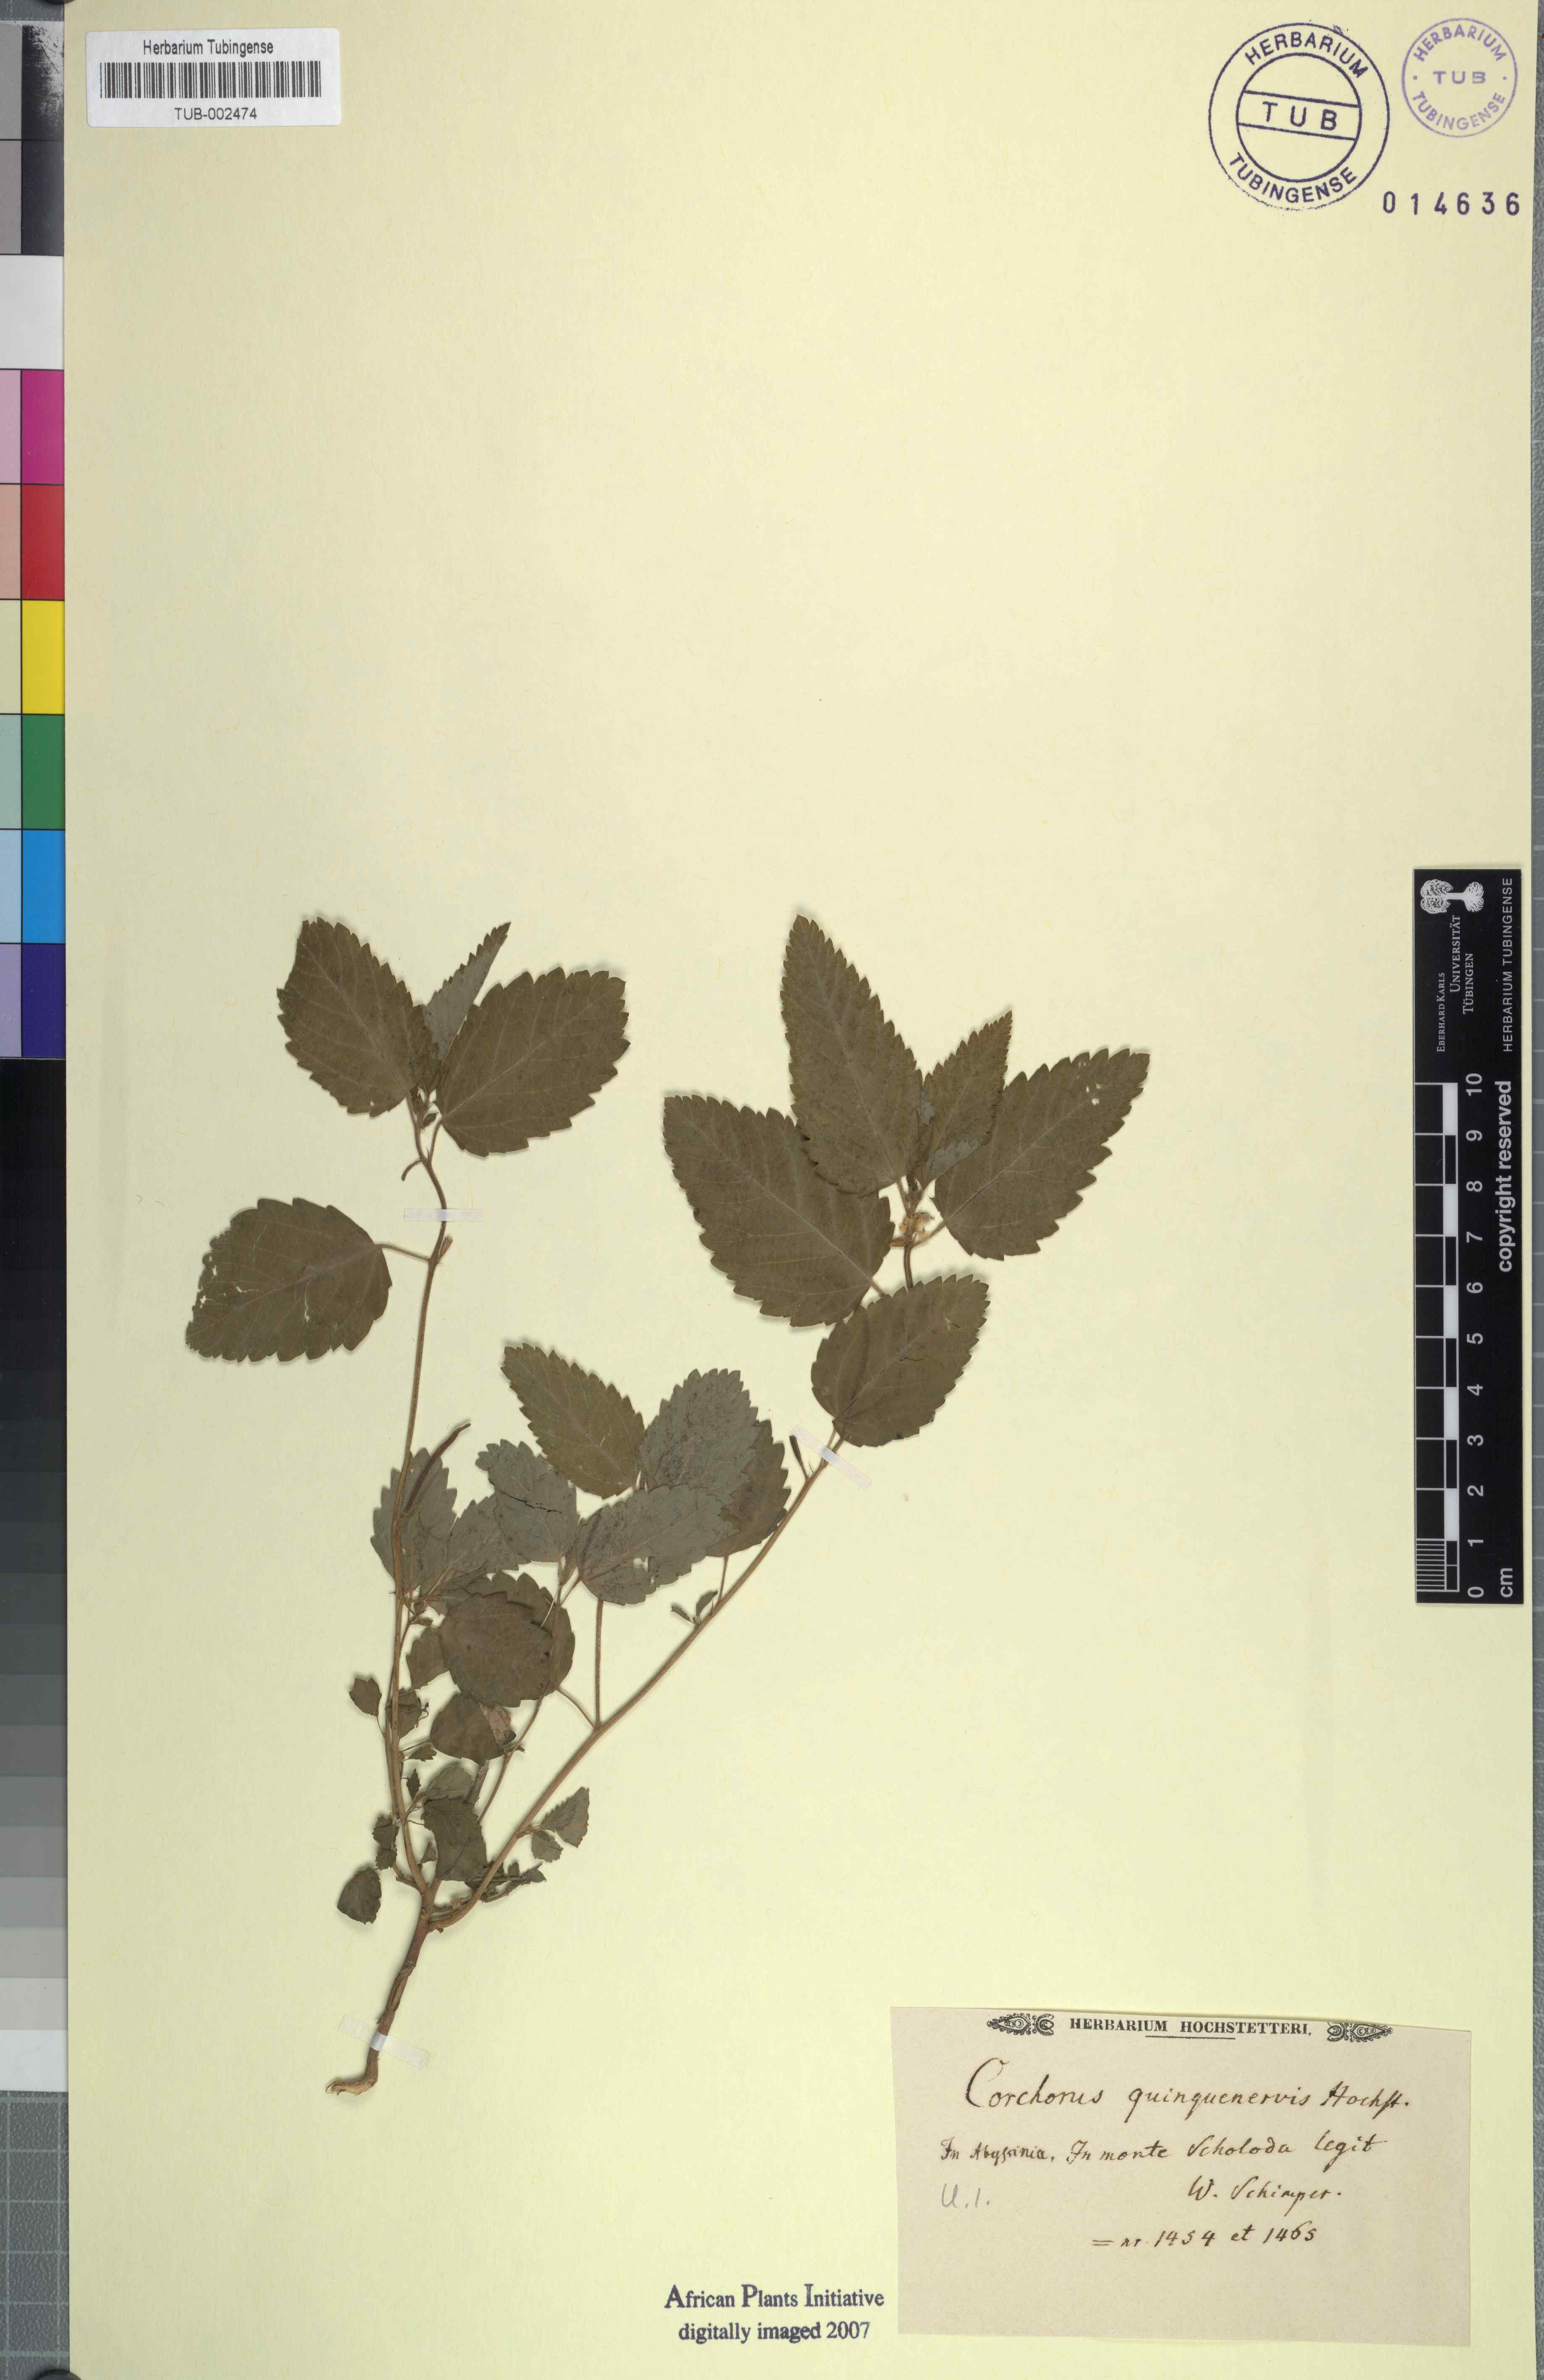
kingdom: Plantae
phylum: Tracheophyta
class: Magnoliopsida
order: Malvales
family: Malvaceae
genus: Corchorus
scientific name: Corchorus urticifolius
